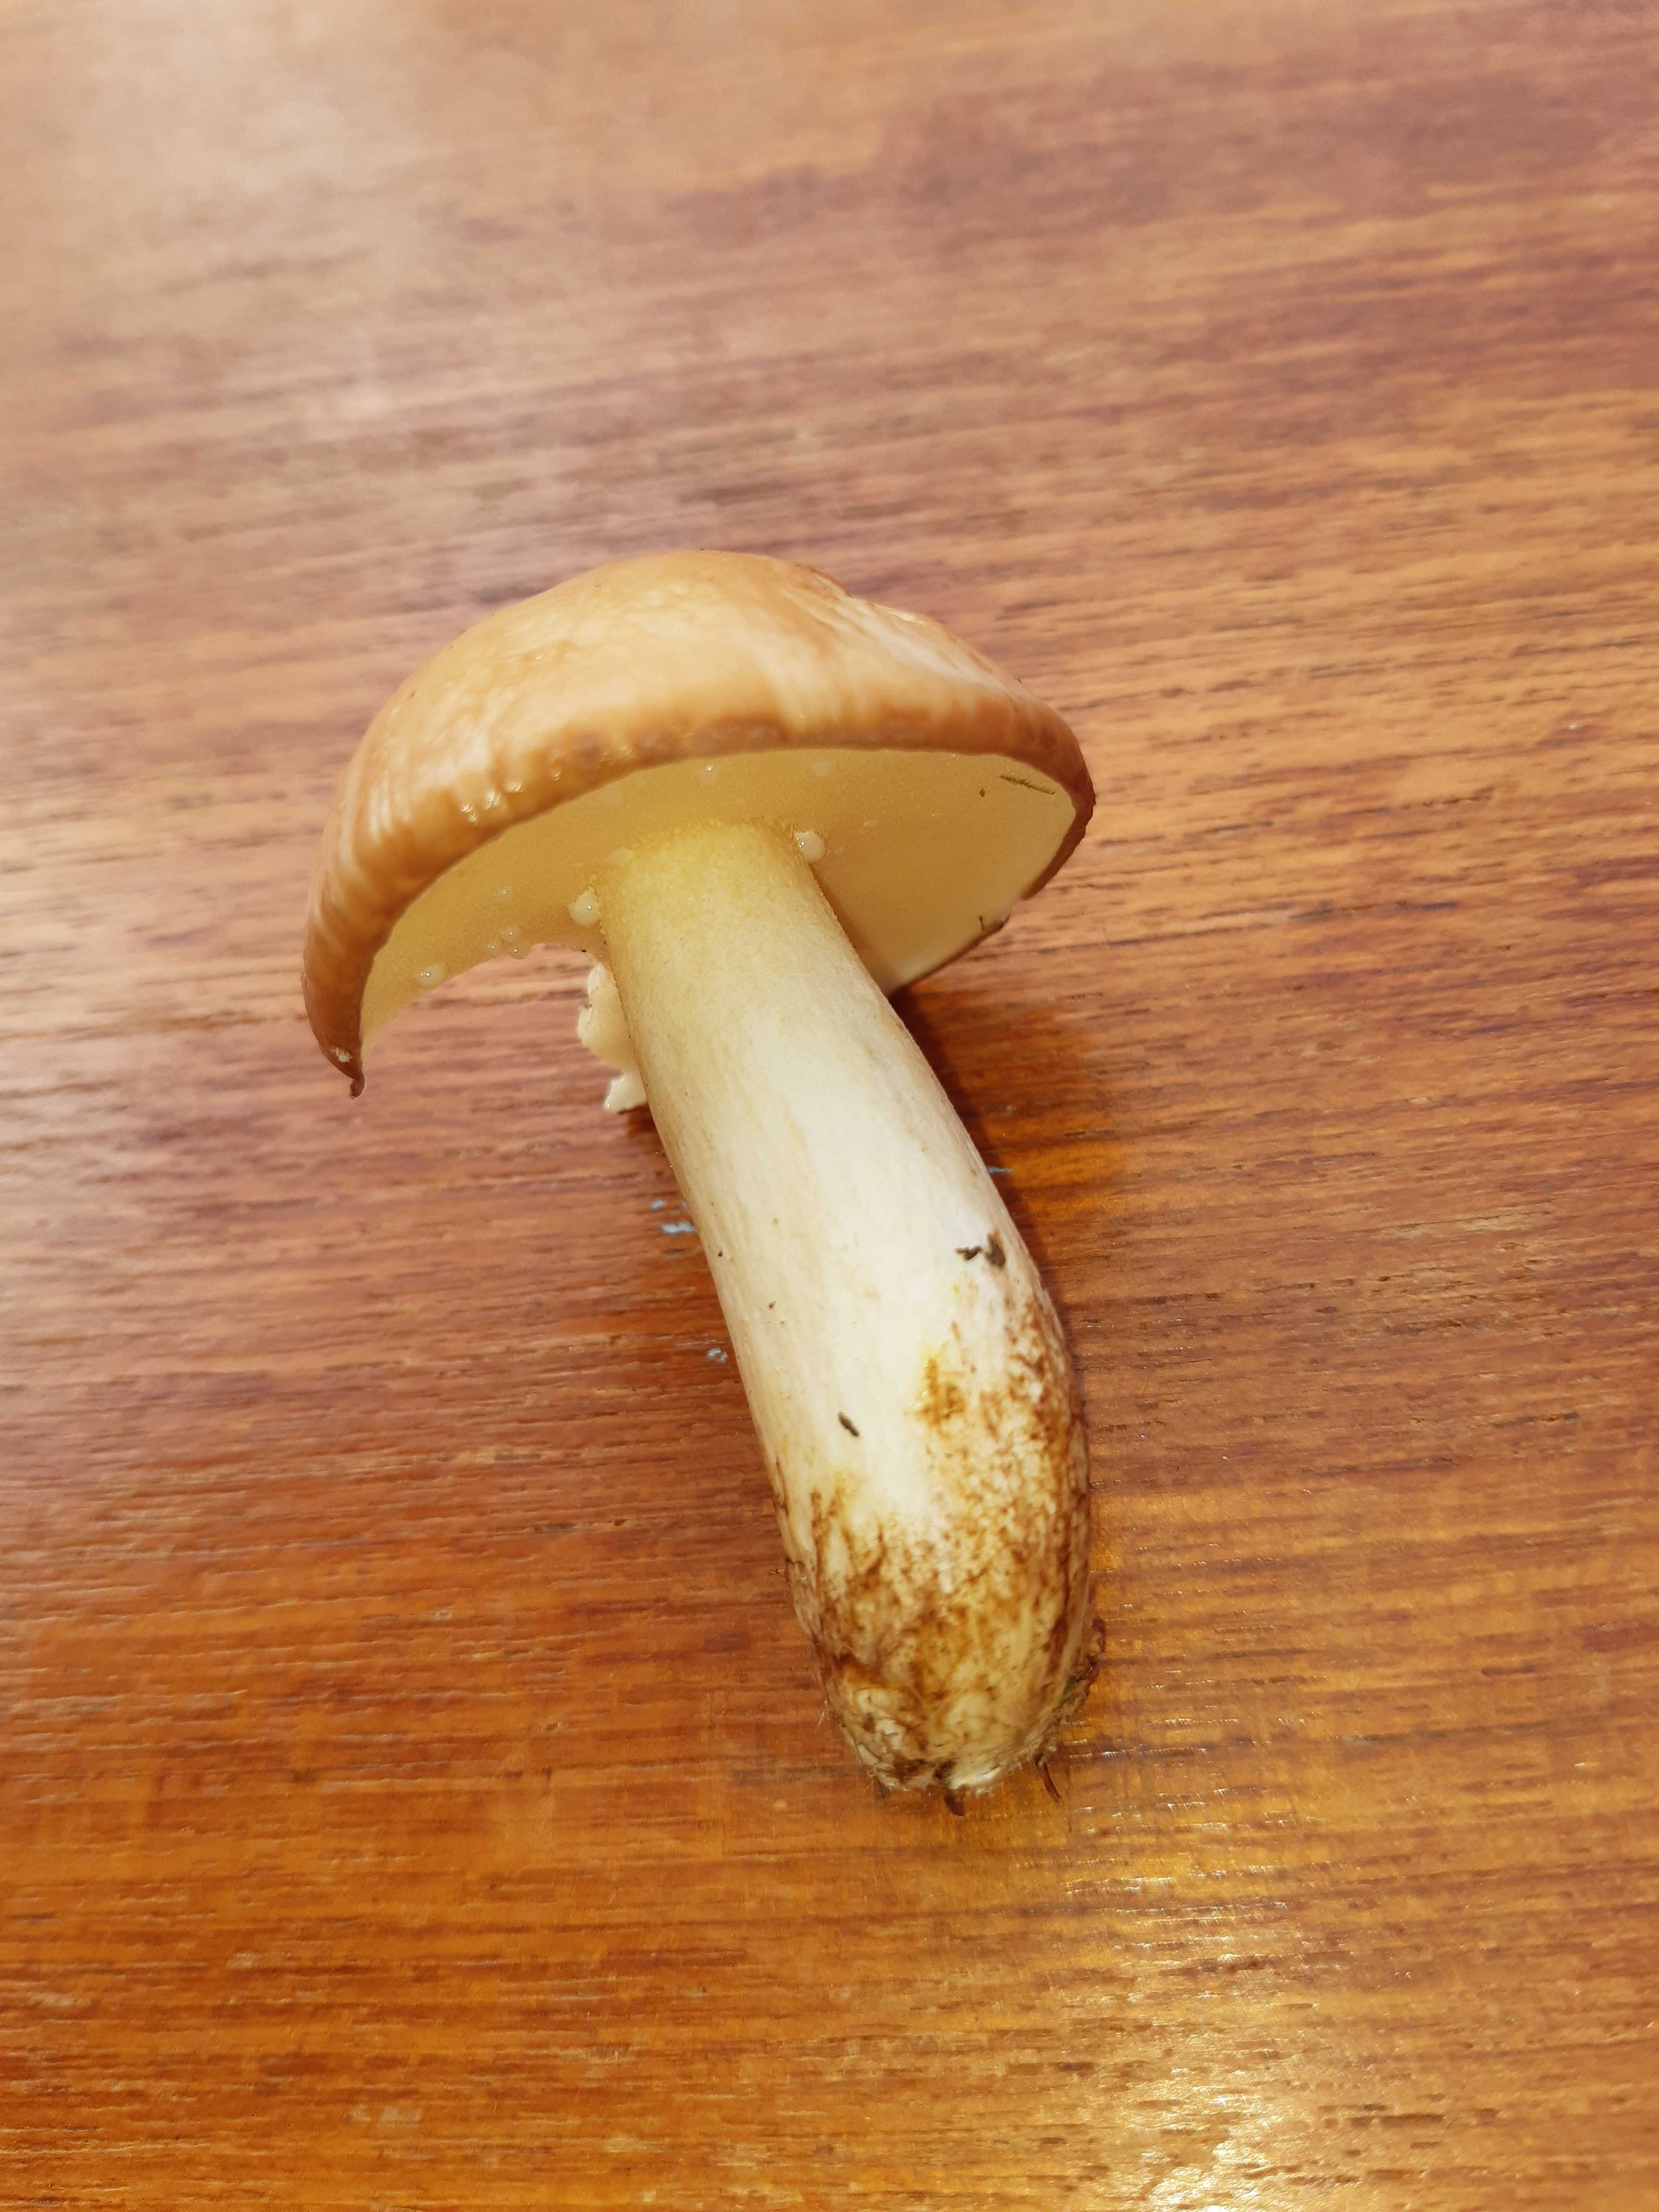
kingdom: Fungi
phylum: Basidiomycota
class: Agaricomycetes
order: Boletales
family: Suillaceae
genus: Suillus
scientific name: Suillus granulatus
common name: kornet slimrørhat
